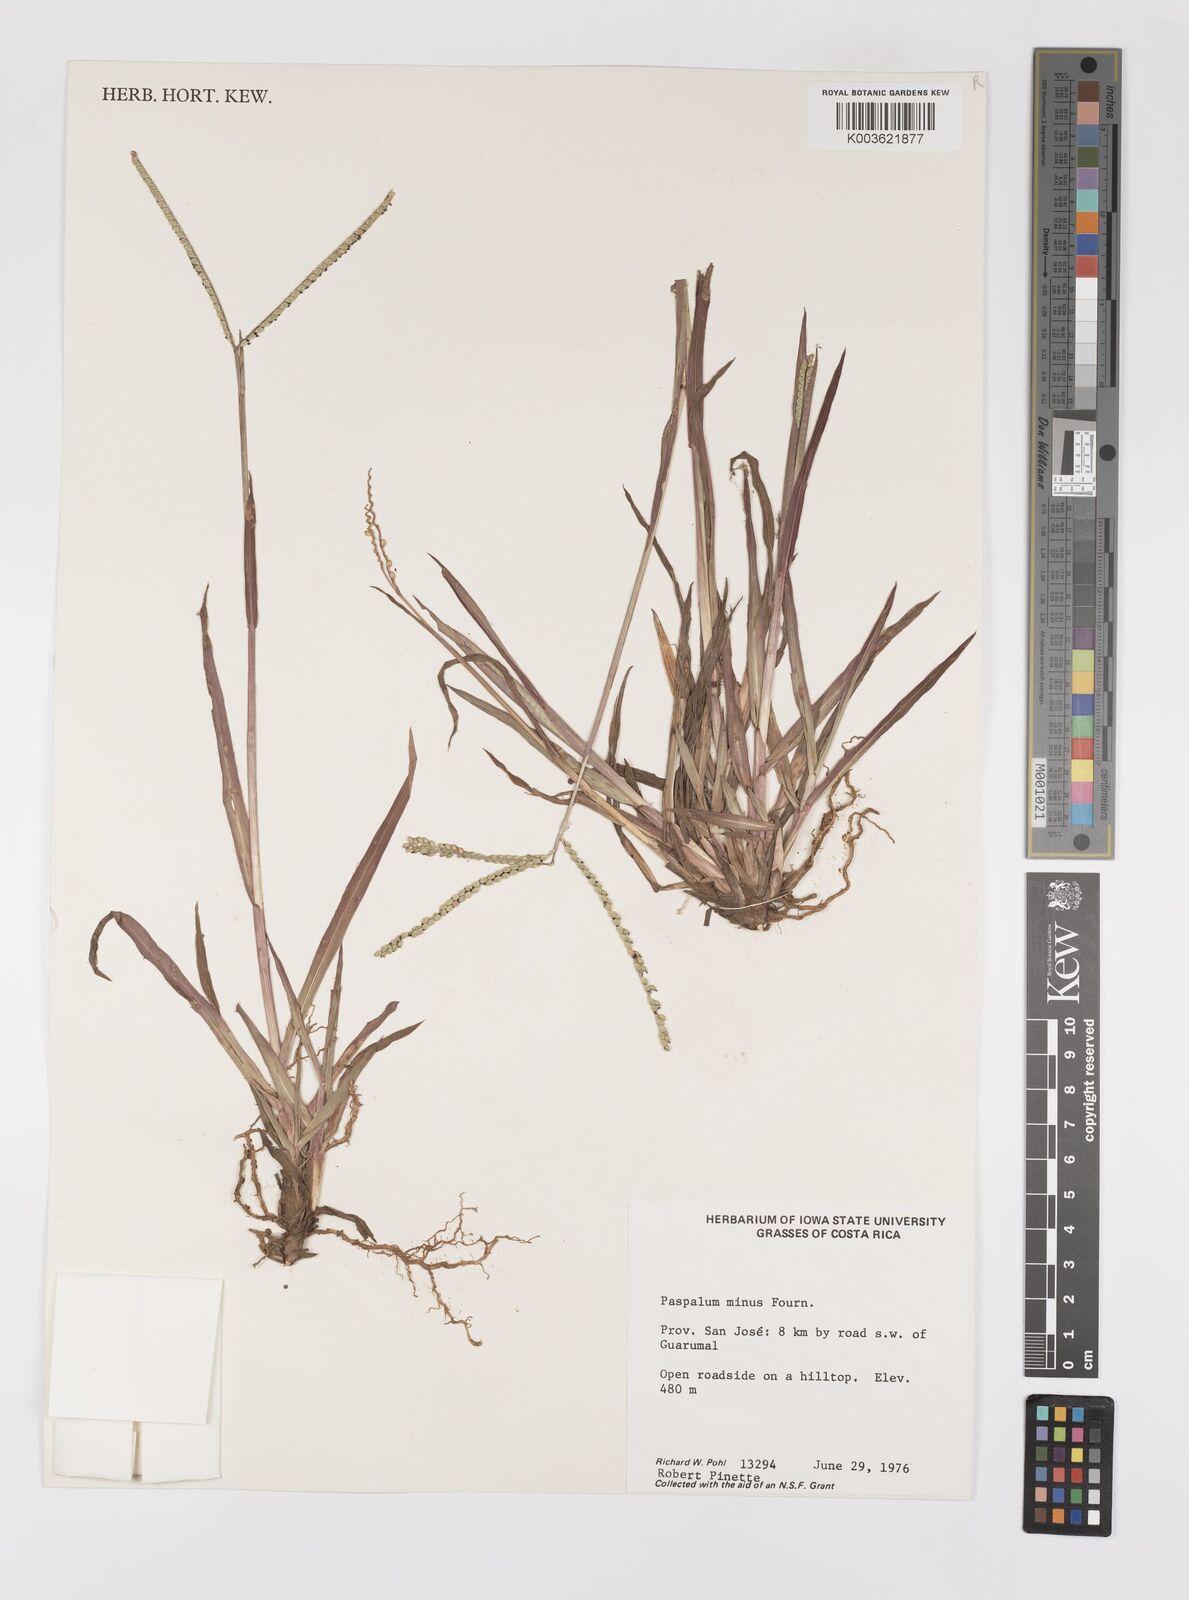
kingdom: Plantae
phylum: Tracheophyta
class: Liliopsida
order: Poales
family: Poaceae
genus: Paspalum
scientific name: Paspalum minus
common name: Matted paspalum
